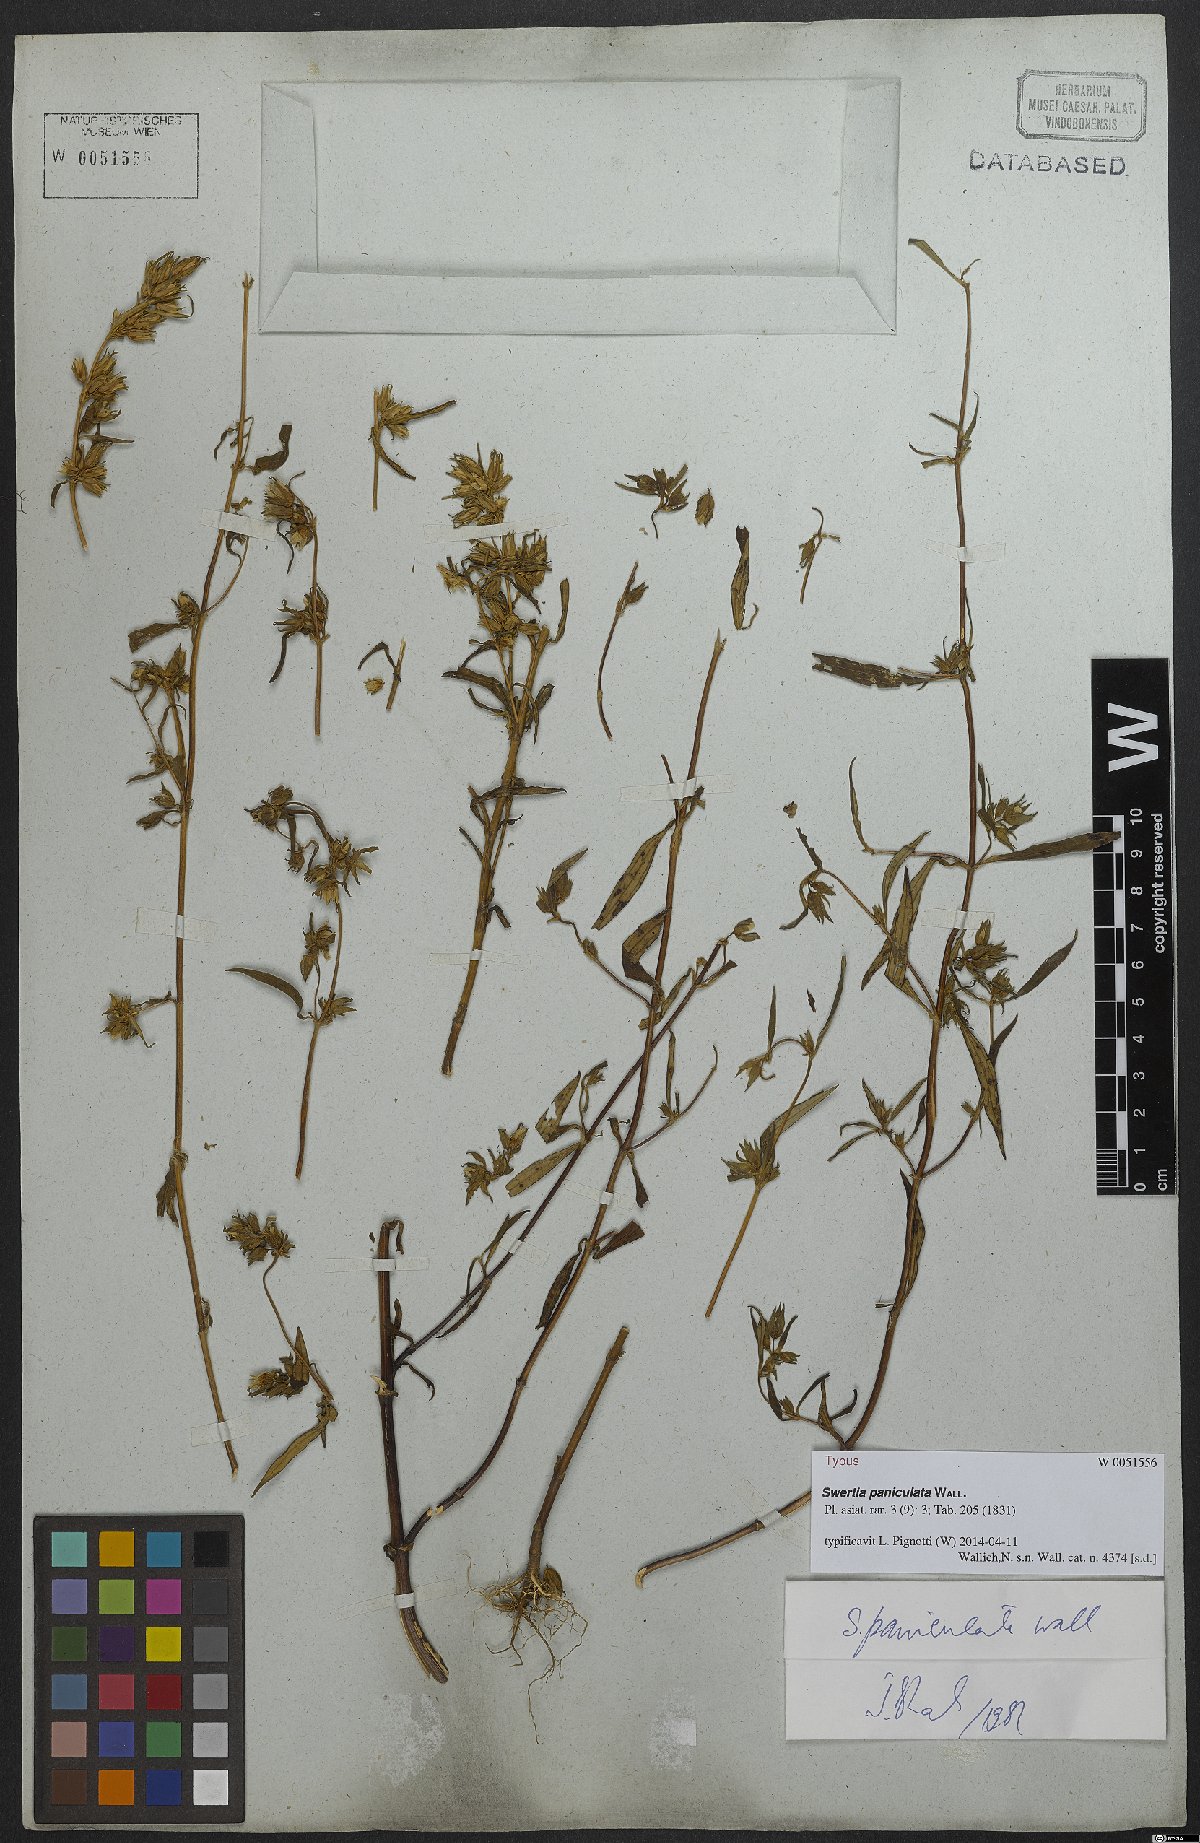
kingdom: Plantae
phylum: Tracheophyta
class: Magnoliopsida
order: Gentianales
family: Gentianaceae
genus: Swertia
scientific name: Swertia paniculata
